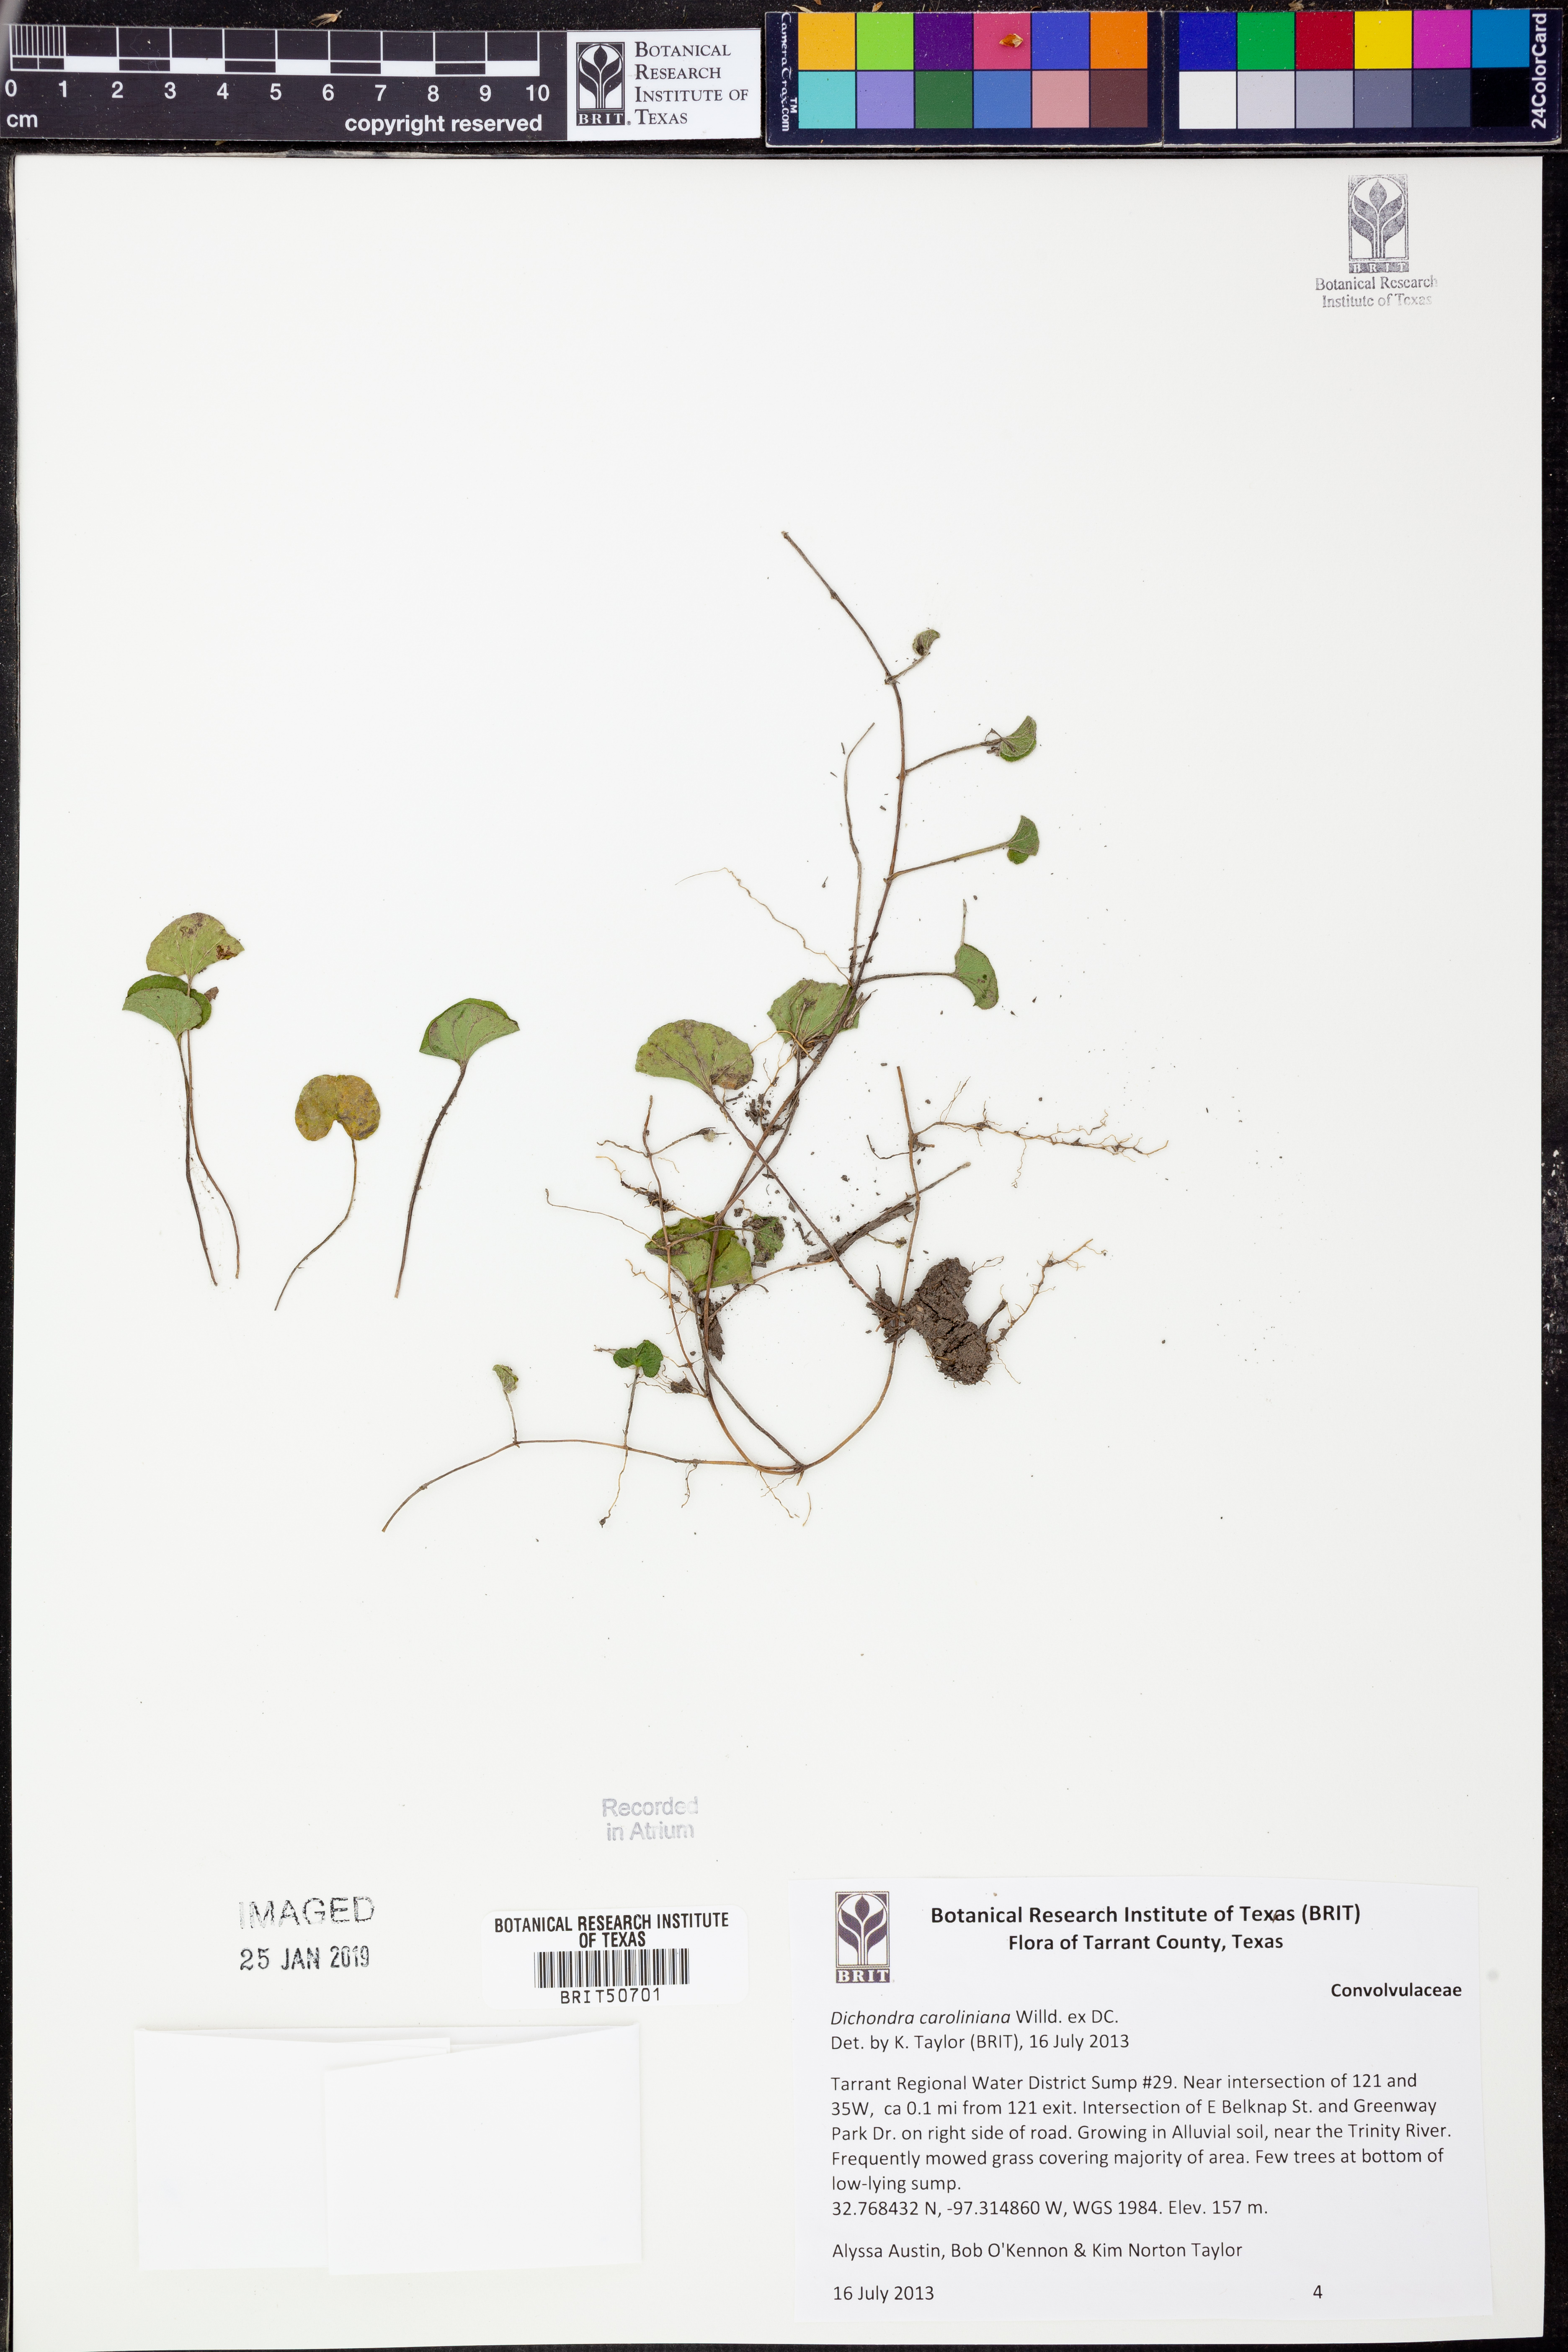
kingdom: Plantae
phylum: Tracheophyta
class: Magnoliopsida
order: Solanales
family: Convolvulaceae
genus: Dichondra
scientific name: Dichondra carolinensis
